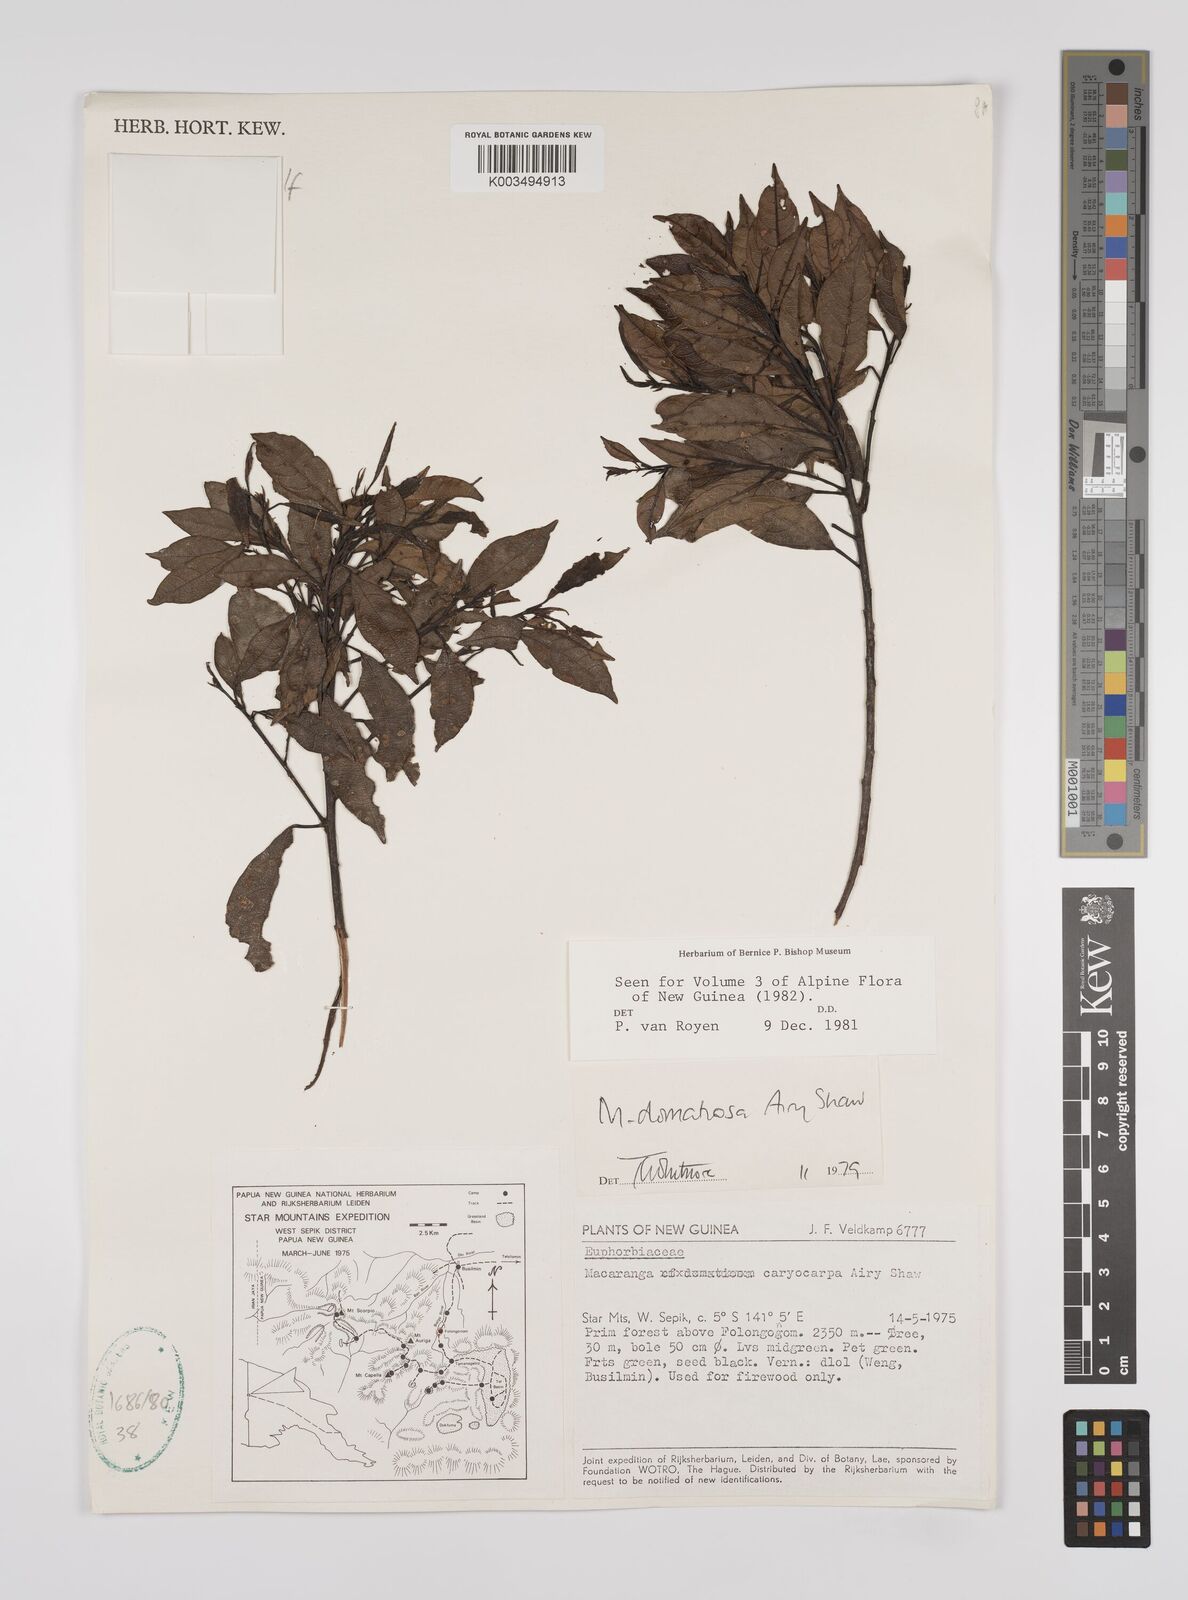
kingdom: Plantae
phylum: Tracheophyta
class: Magnoliopsida
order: Malpighiales
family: Euphorbiaceae
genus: Macaranga
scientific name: Macaranga domatiosa
